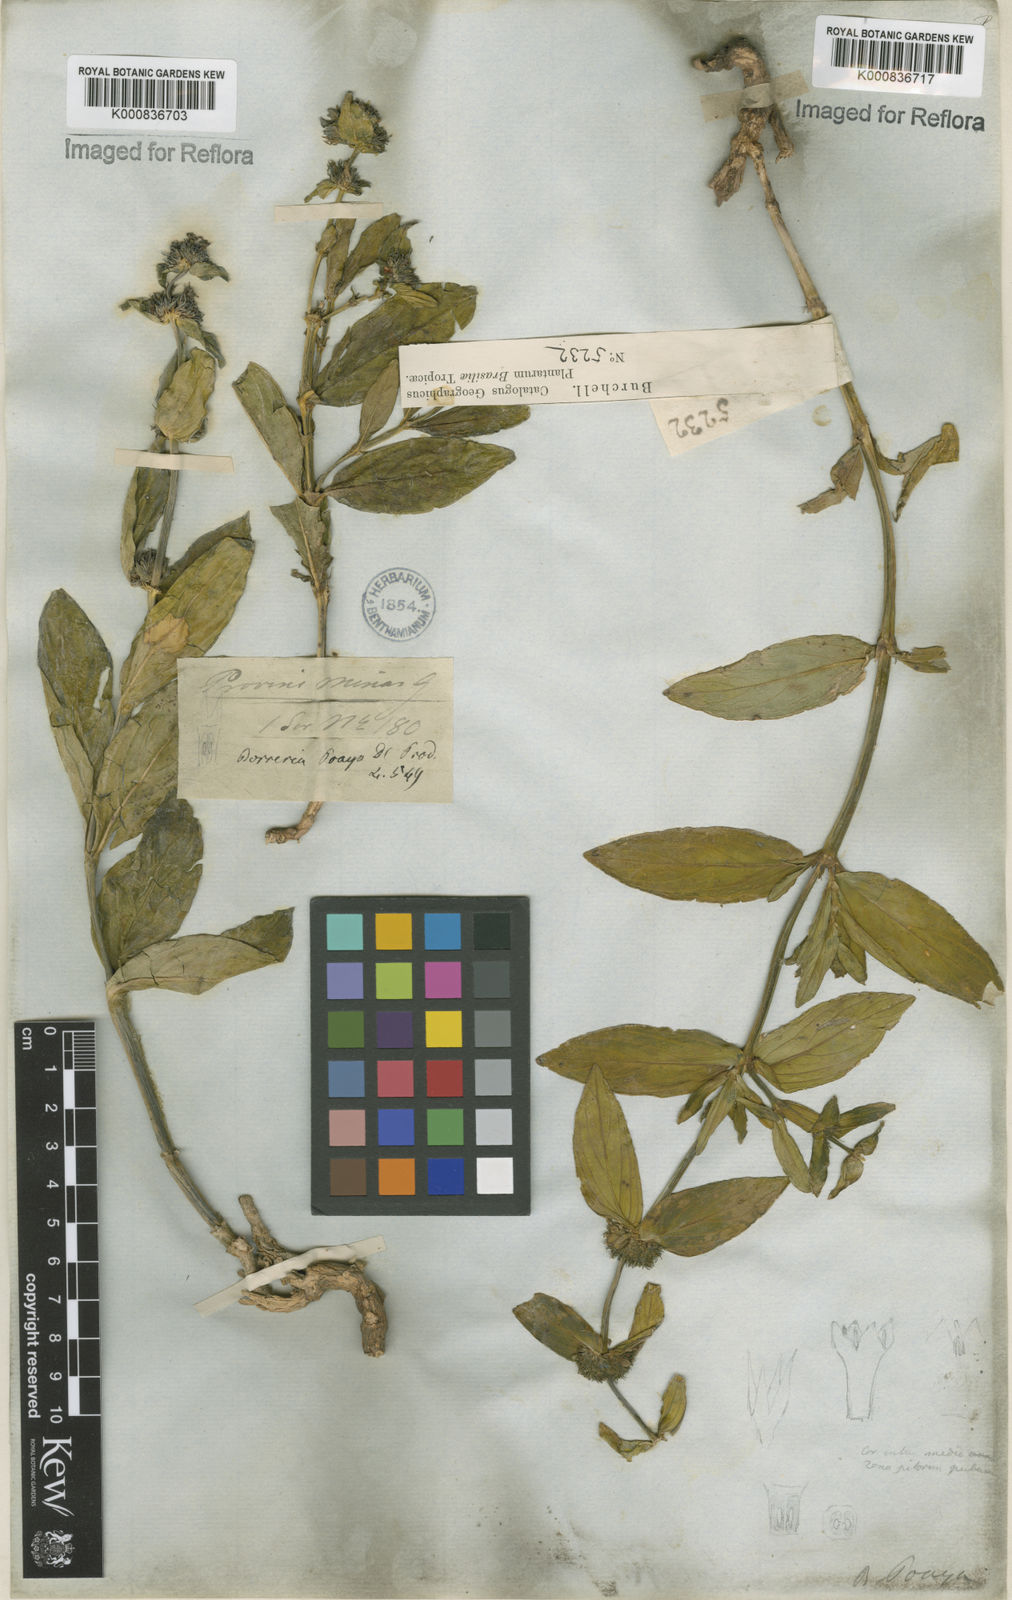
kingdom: Plantae
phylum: Tracheophyta
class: Magnoliopsida
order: Gentianales
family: Rubiaceae
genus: Spermacoce
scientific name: Spermacoce poaya
